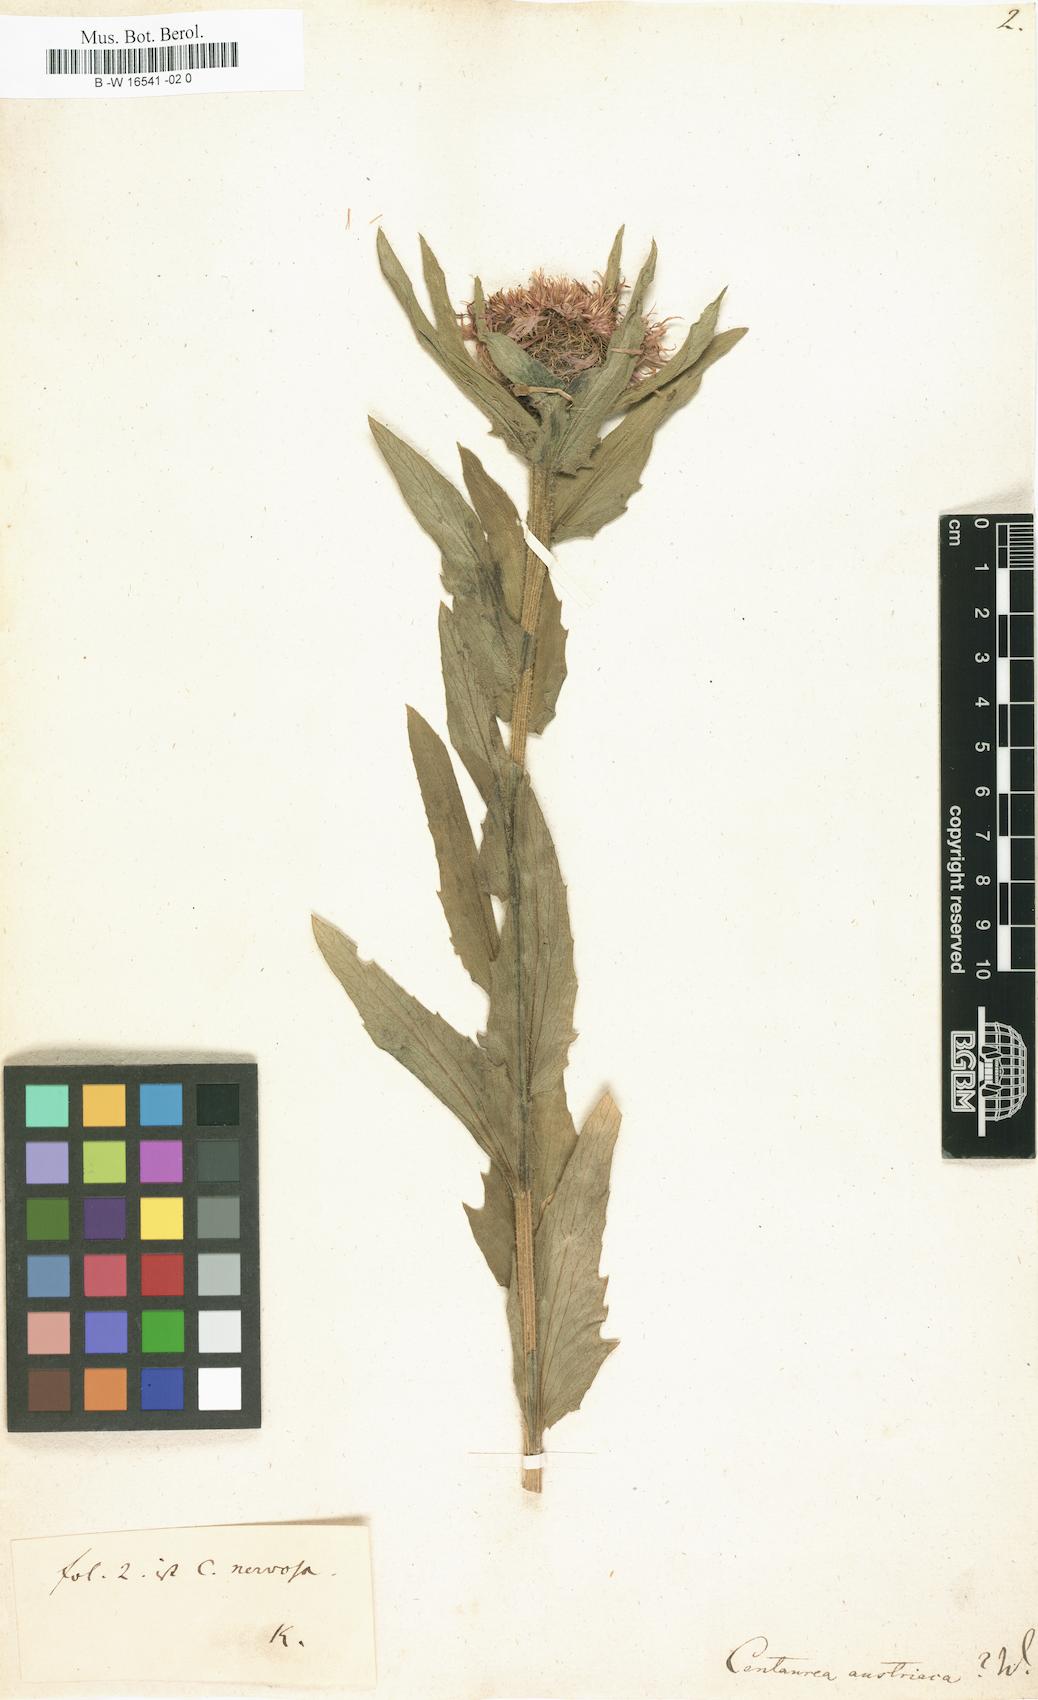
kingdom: Plantae
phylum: Tracheophyta
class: Magnoliopsida
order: Asterales
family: Asteraceae
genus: Centaurea
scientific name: Centaurea
